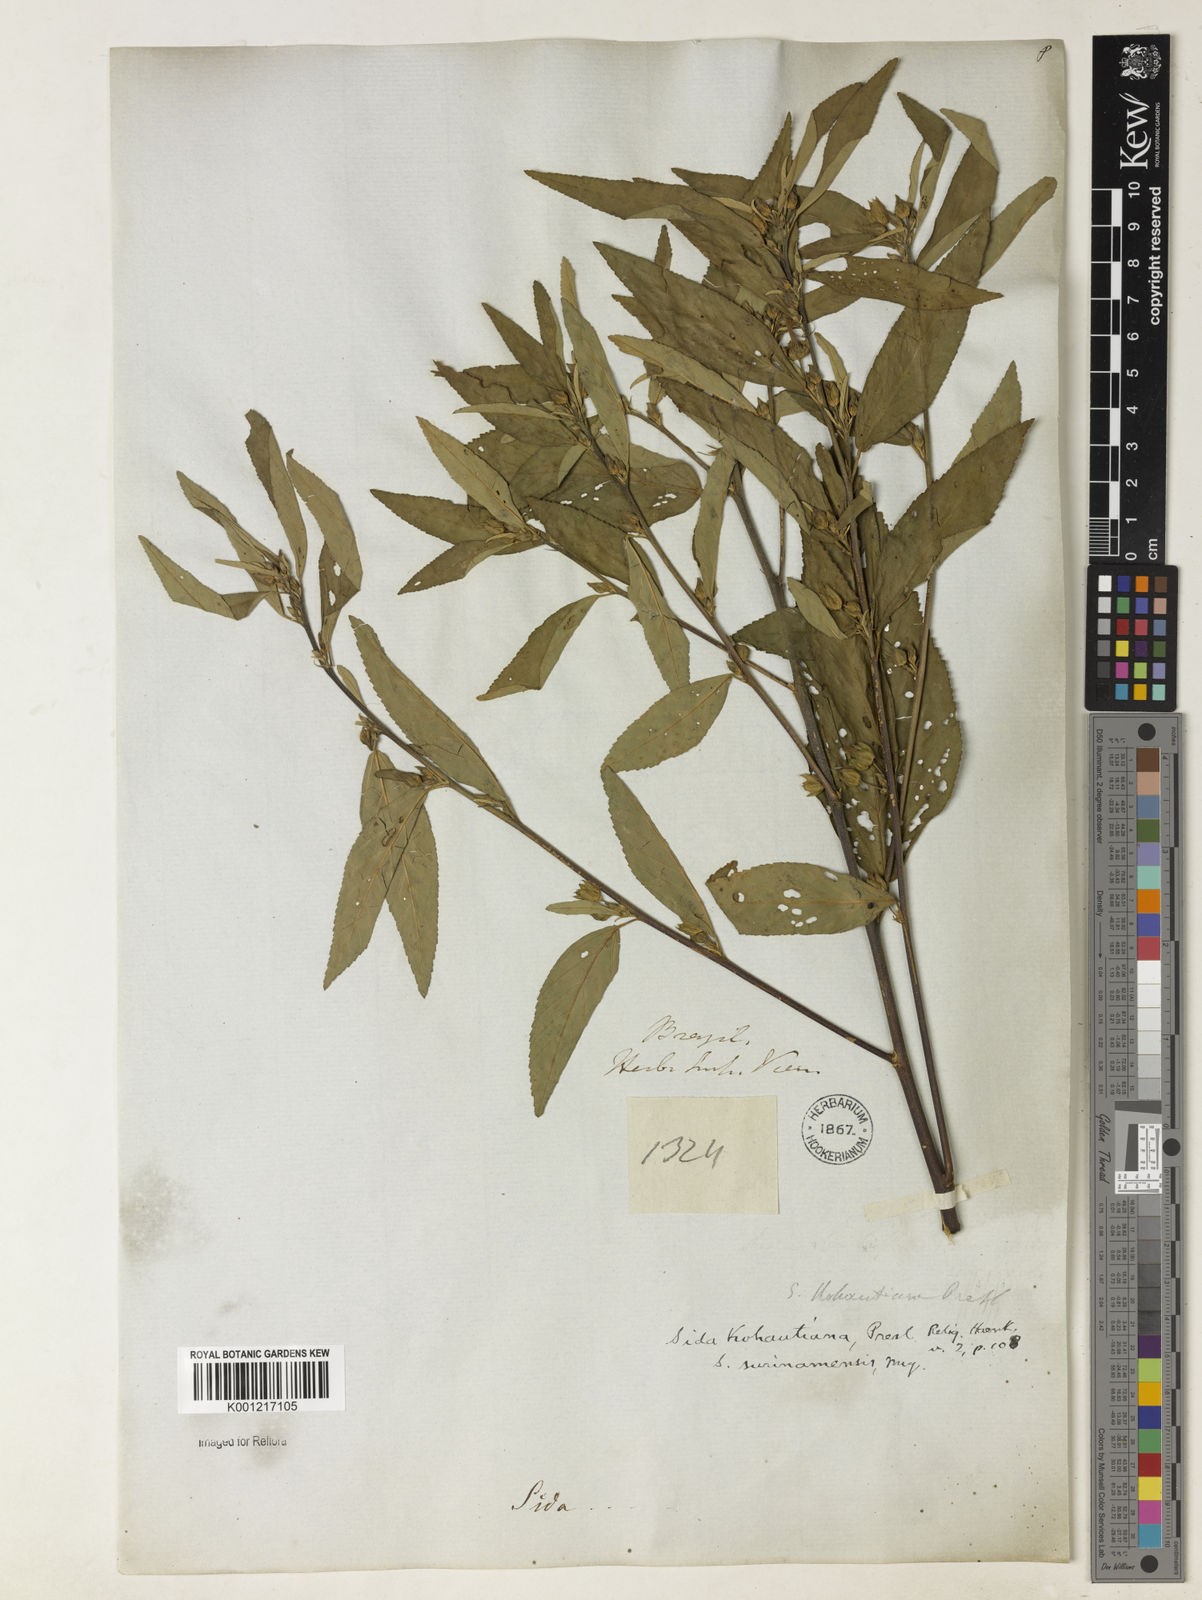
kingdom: Plantae
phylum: Tracheophyta
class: Magnoliopsida
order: Malvales
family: Malvaceae
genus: Sida
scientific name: Sida
